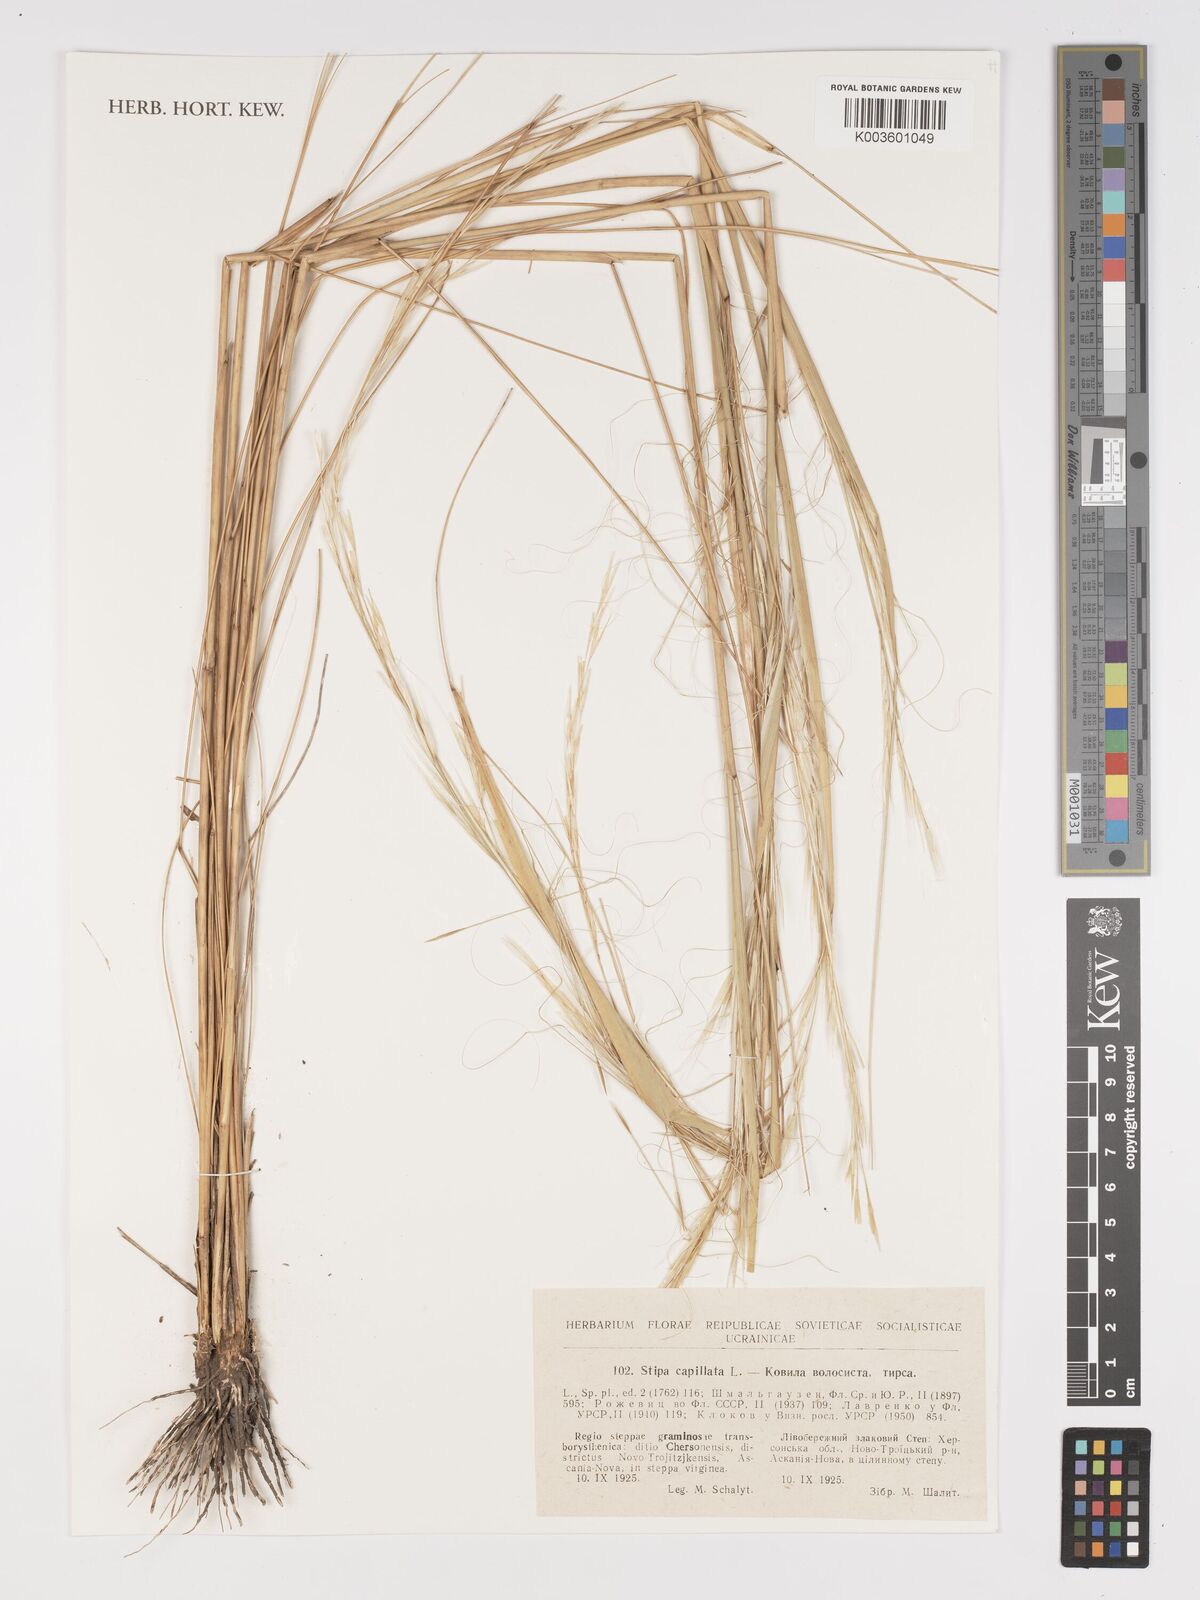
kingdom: Plantae
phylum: Tracheophyta
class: Liliopsida
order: Poales
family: Poaceae
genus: Stipa
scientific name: Stipa capillata
